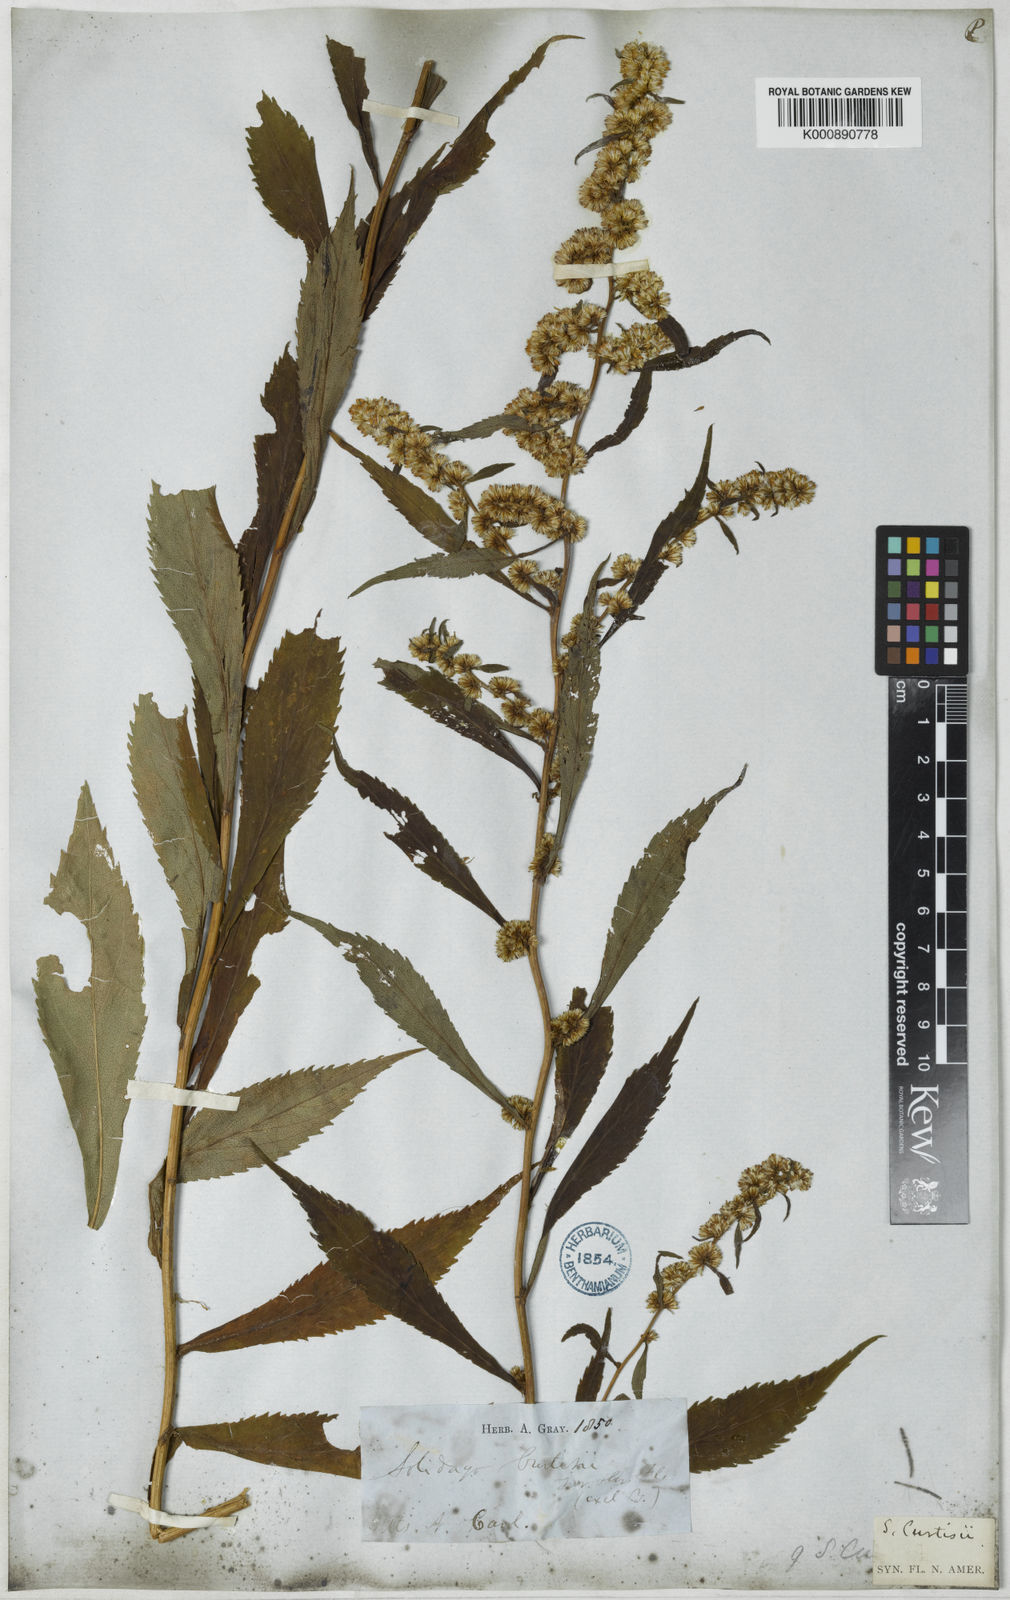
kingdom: Plantae
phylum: Tracheophyta
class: Magnoliopsida
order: Asterales
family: Asteraceae
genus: Solidago
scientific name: Solidago curtisii
